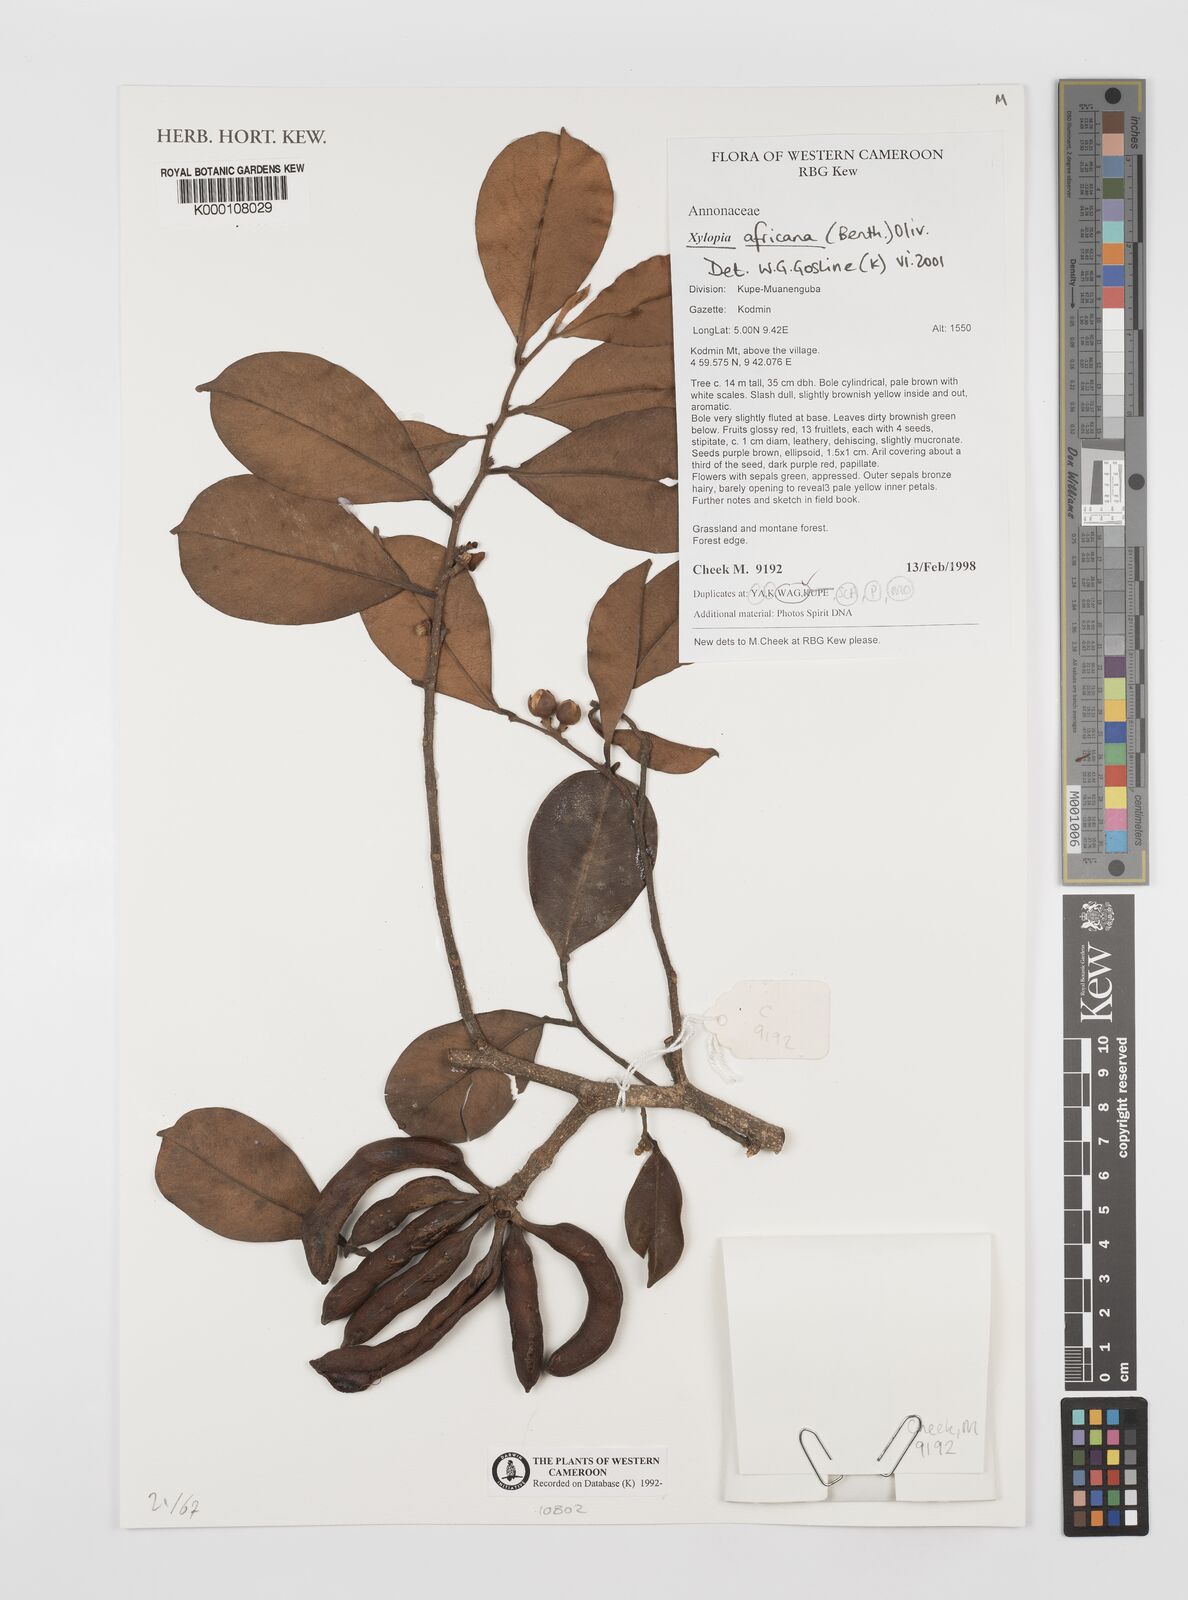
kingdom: Plantae
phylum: Tracheophyta
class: Magnoliopsida
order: Magnoliales
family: Annonaceae
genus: Xylopia
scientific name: Xylopia africana
